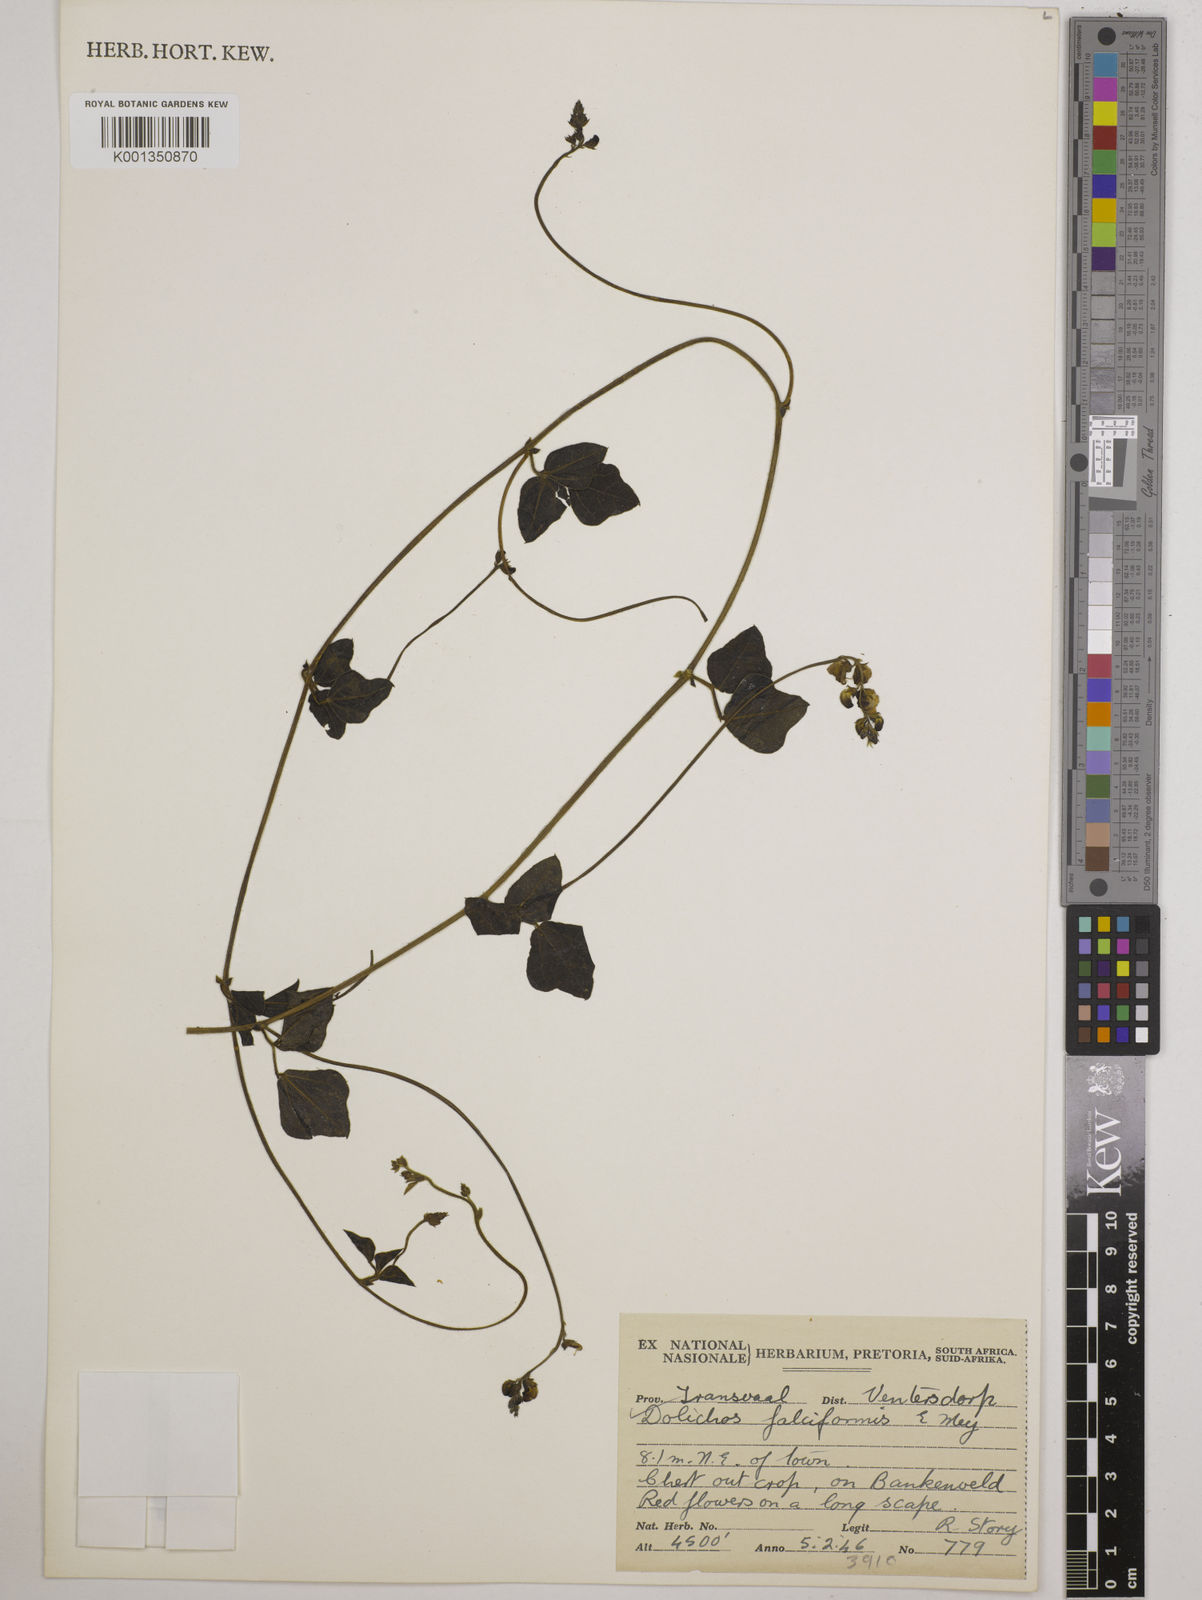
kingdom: Plantae
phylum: Tracheophyta
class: Magnoliopsida
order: Fabales
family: Fabaceae
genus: Dolichos
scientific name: Dolichos falciformis
